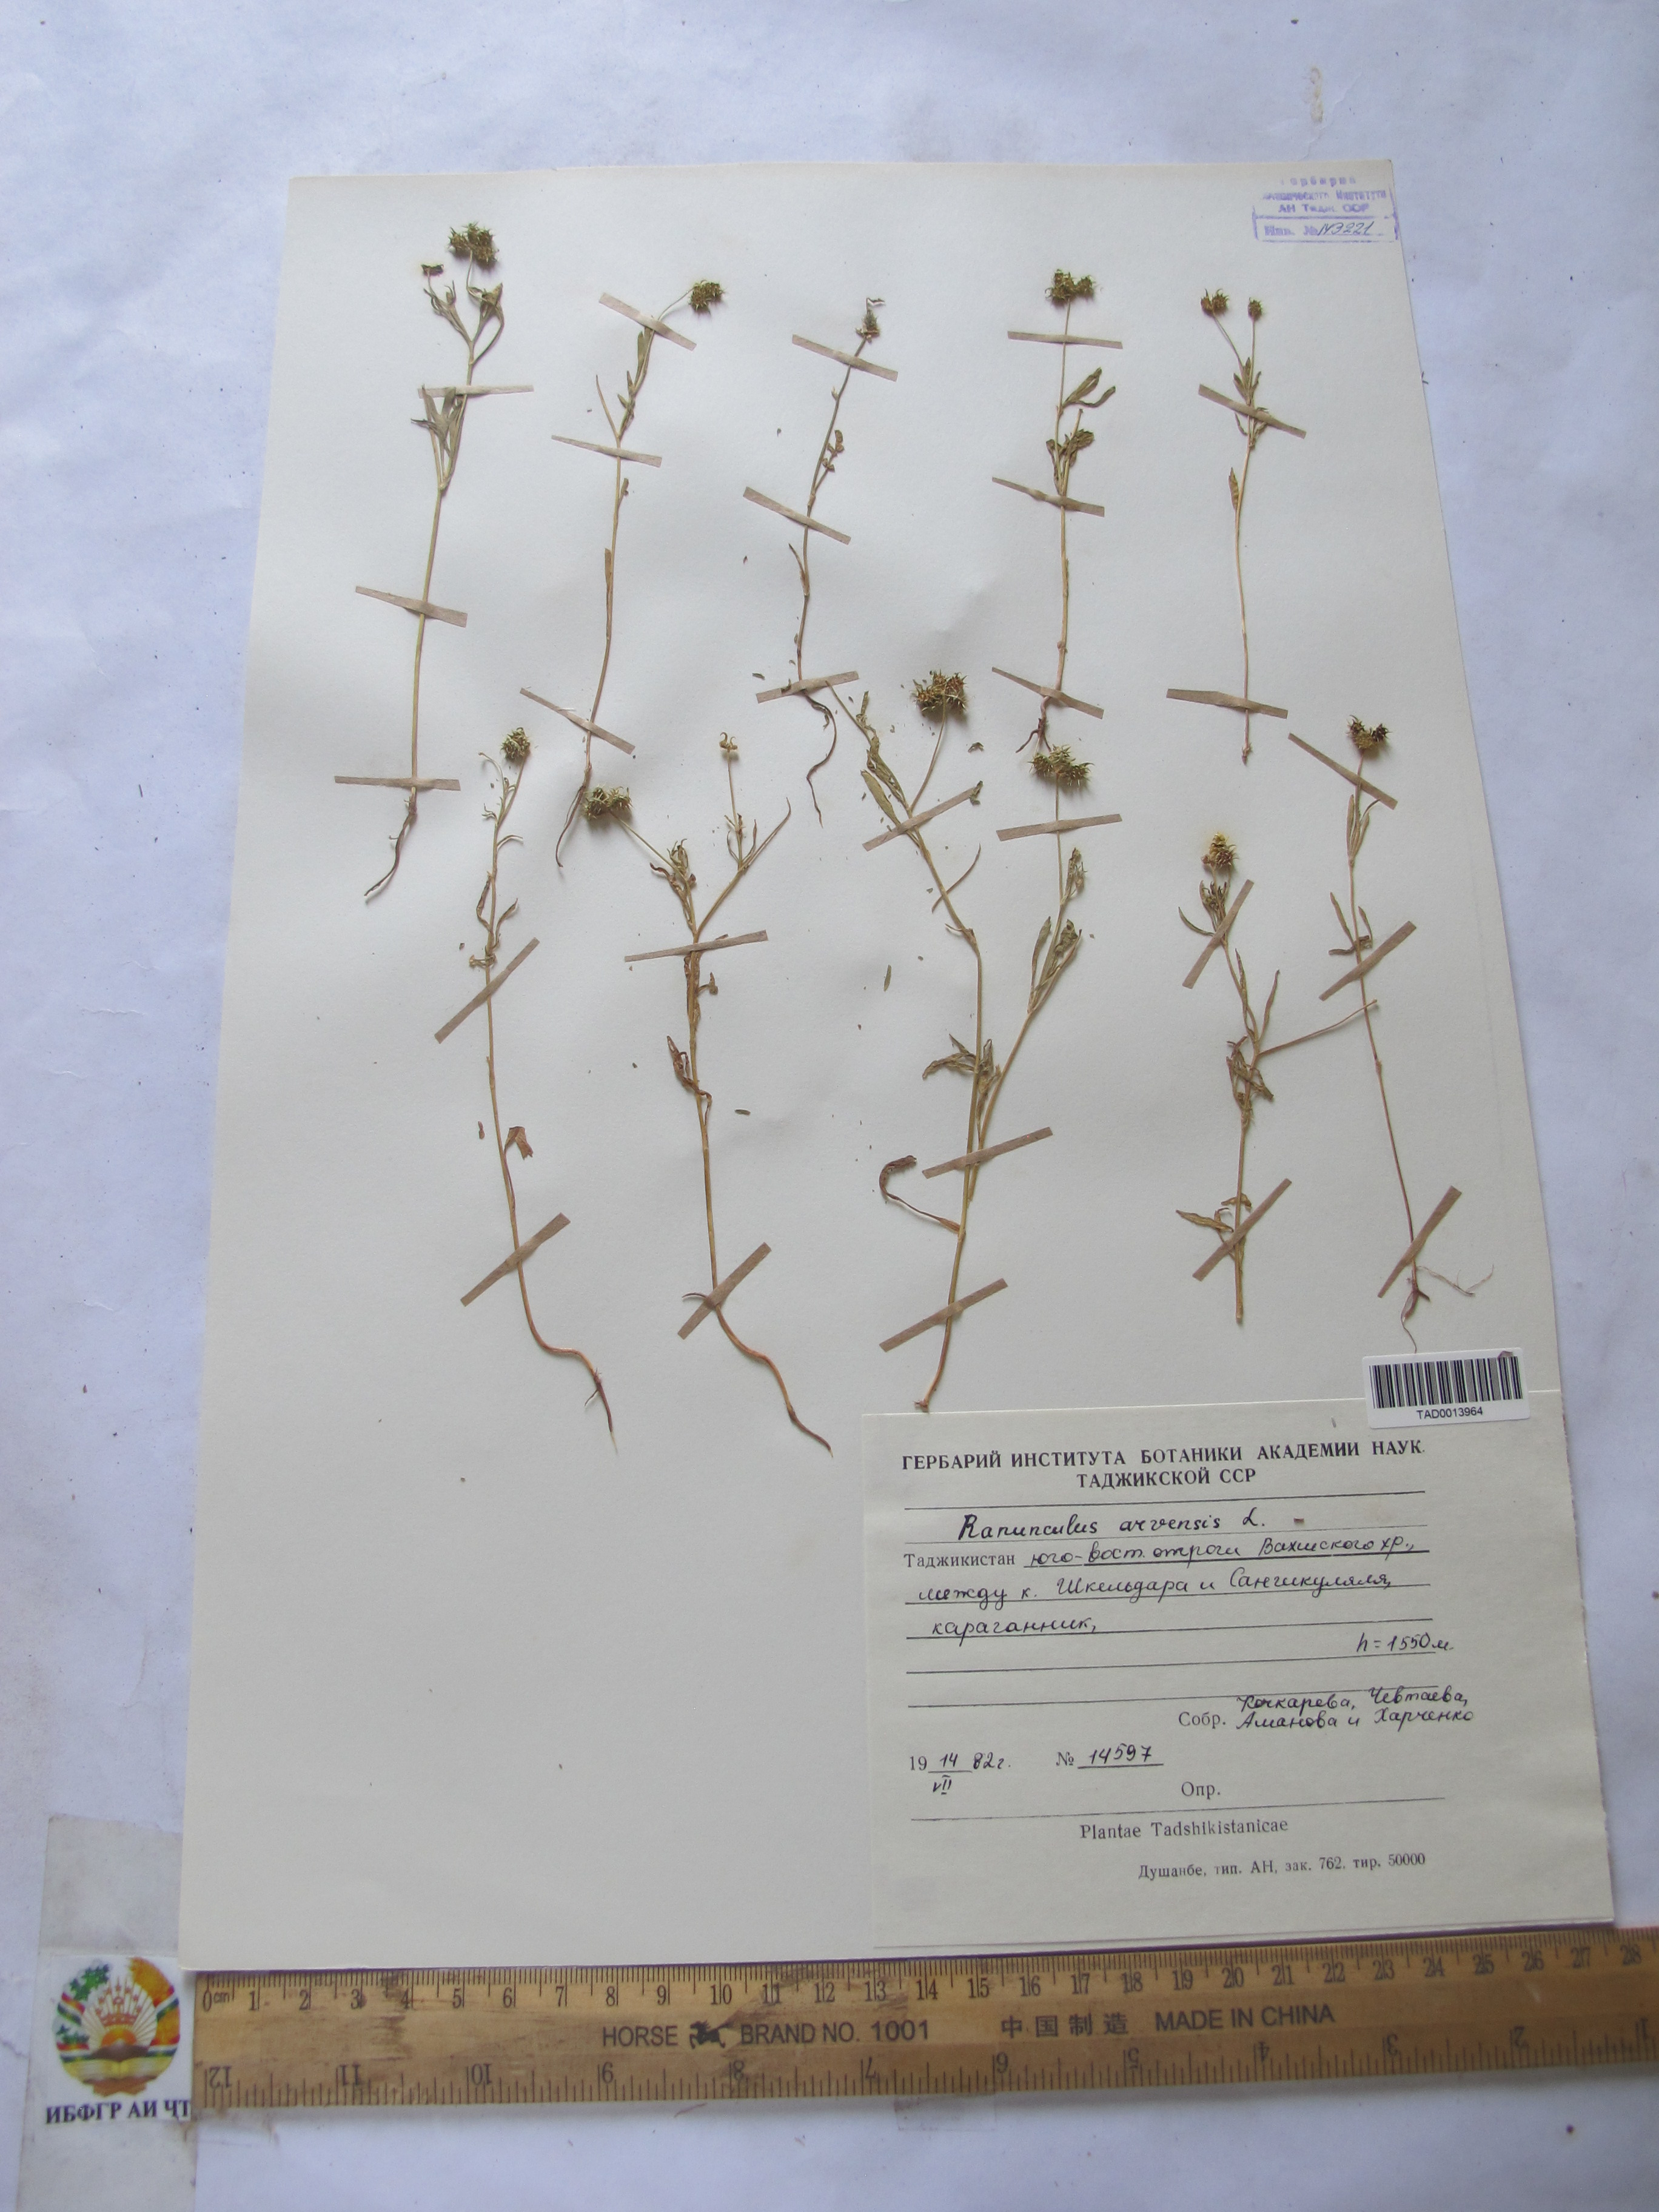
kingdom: Plantae
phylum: Tracheophyta
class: Magnoliopsida
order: Ranunculales
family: Ranunculaceae
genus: Ranunculus
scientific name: Ranunculus arvensis
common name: Corn buttercup
